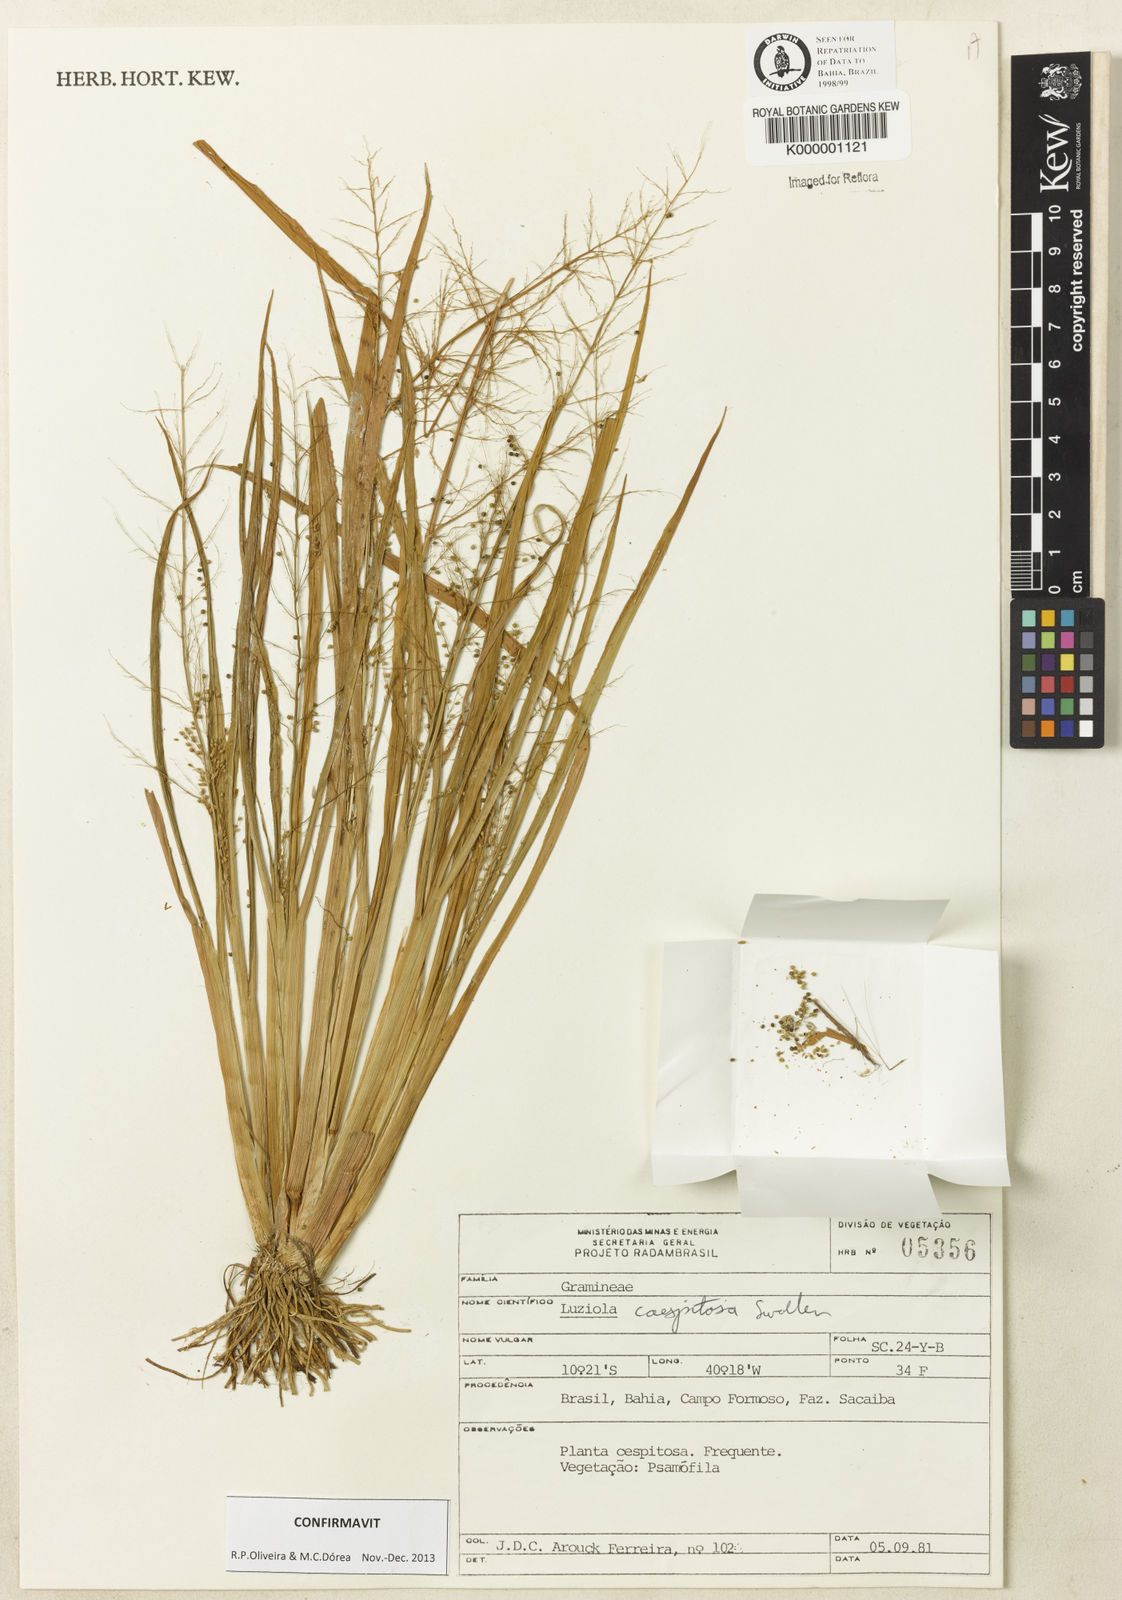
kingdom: Plantae
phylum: Tracheophyta
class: Liliopsida
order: Poales
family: Poaceae
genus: Luziola
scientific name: Luziola caespitosa
